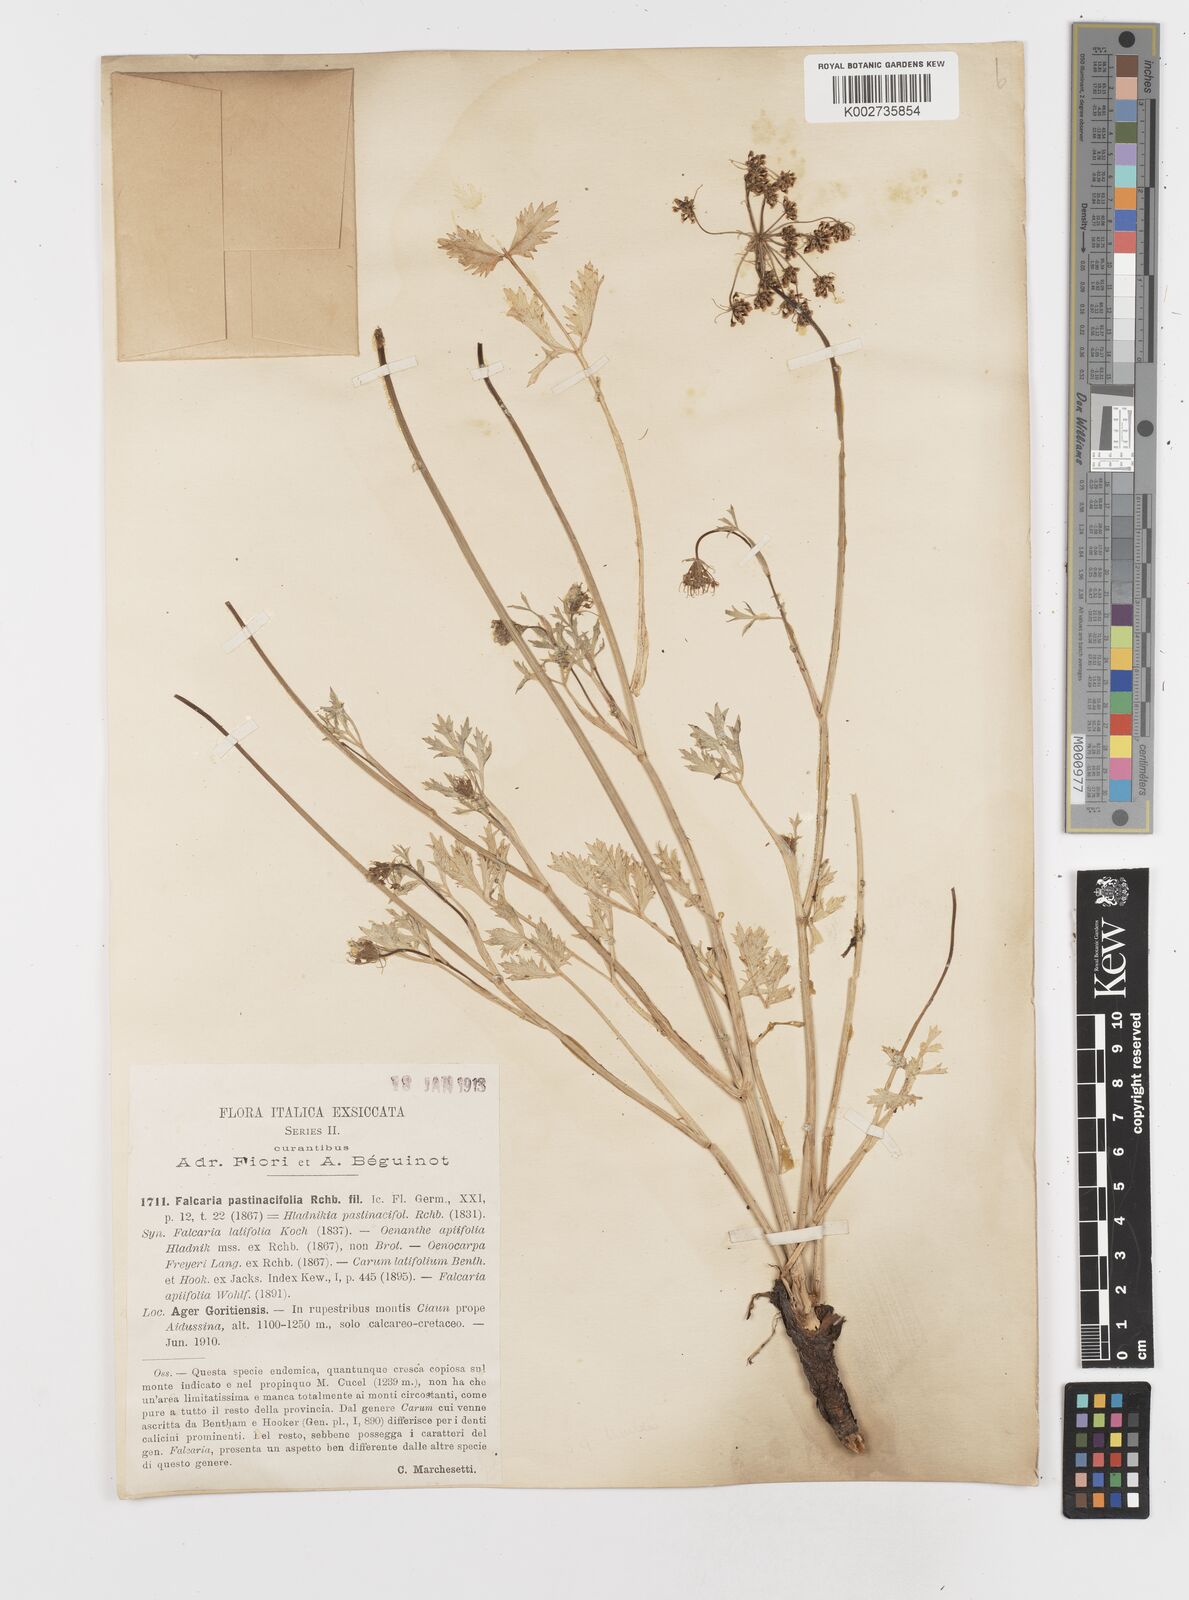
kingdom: Plantae
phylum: Tracheophyta
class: Magnoliopsida
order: Apiales
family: Apiaceae
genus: Hladnikia
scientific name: Hladnikia pastinacifolia
